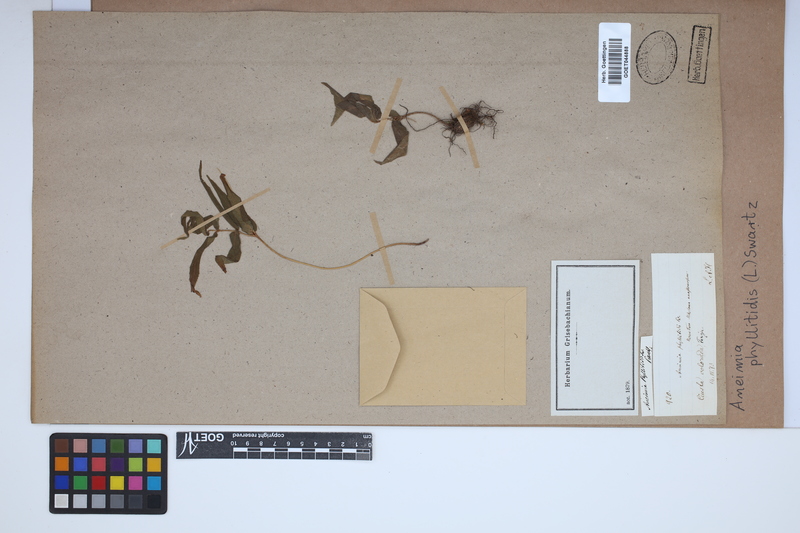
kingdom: Plantae
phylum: Tracheophyta
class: Polypodiopsida
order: Schizaeales
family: Anemiaceae
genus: Anemia
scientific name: Anemia phyllitidis
